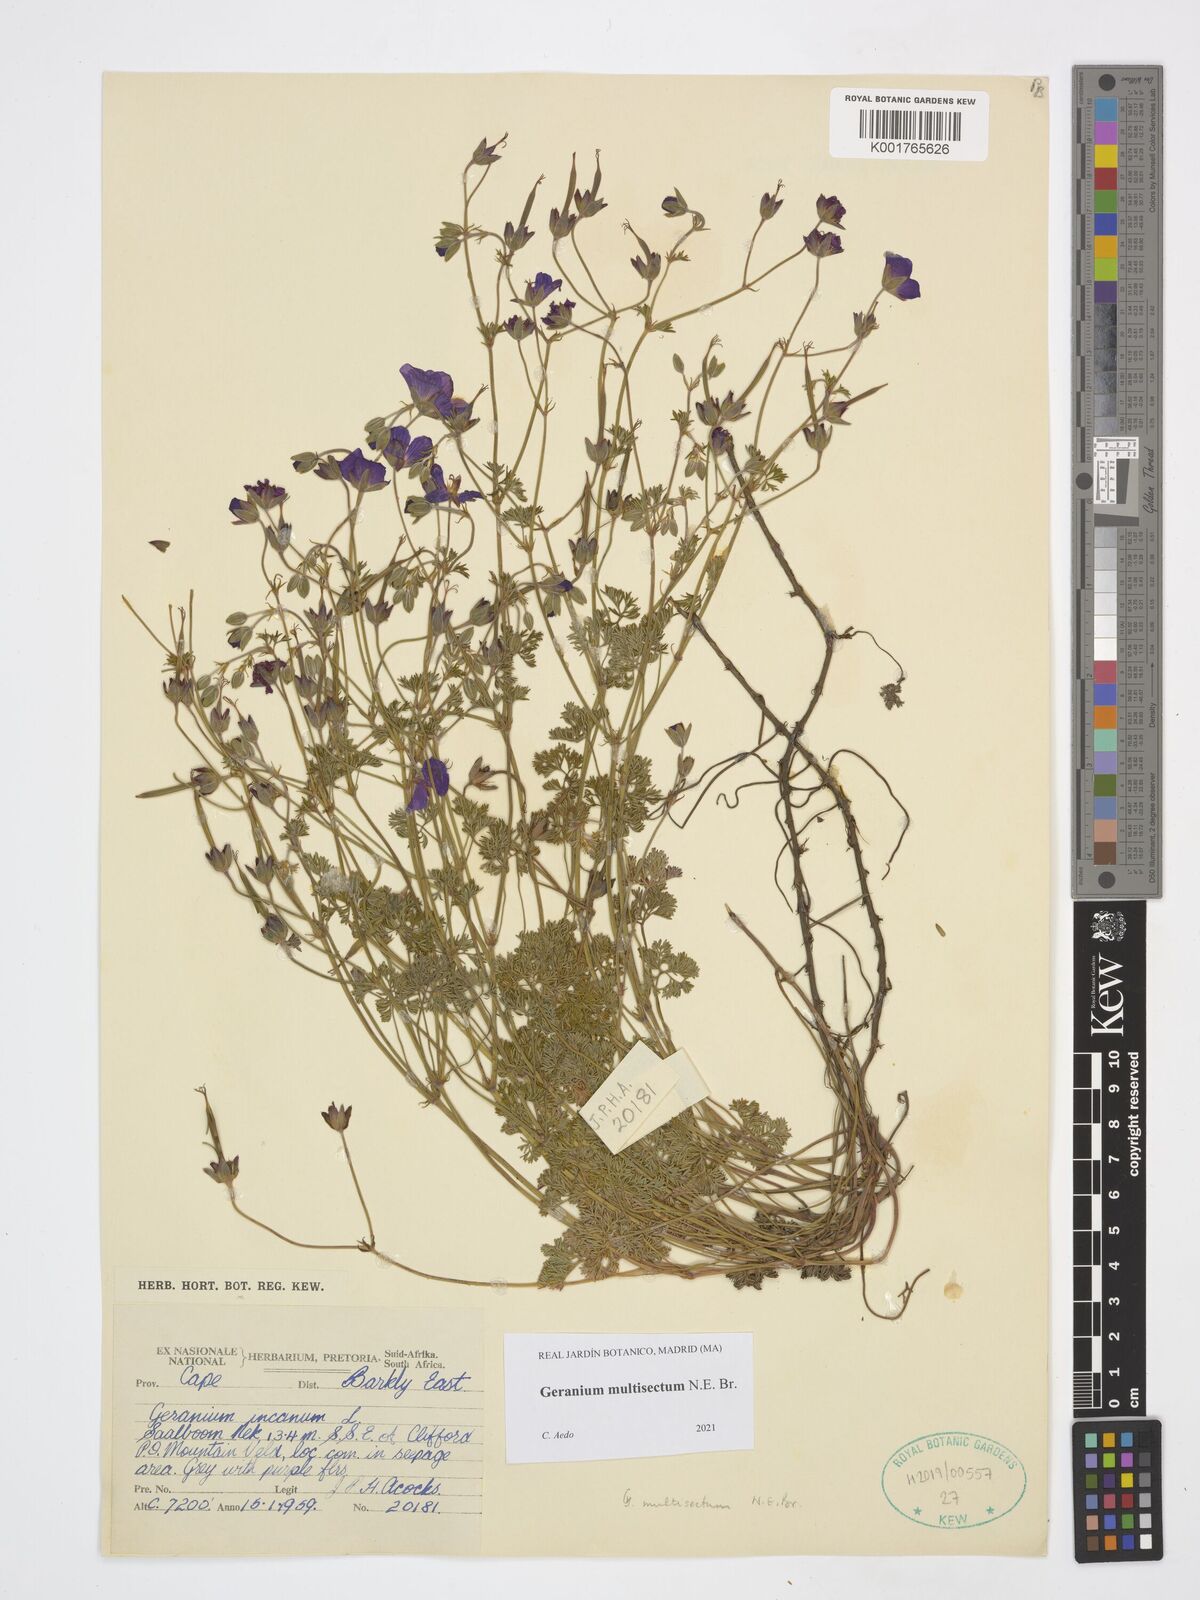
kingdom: Plantae
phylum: Tracheophyta
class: Magnoliopsida
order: Geraniales
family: Geraniaceae
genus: Geranium
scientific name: Geranium multisectum
